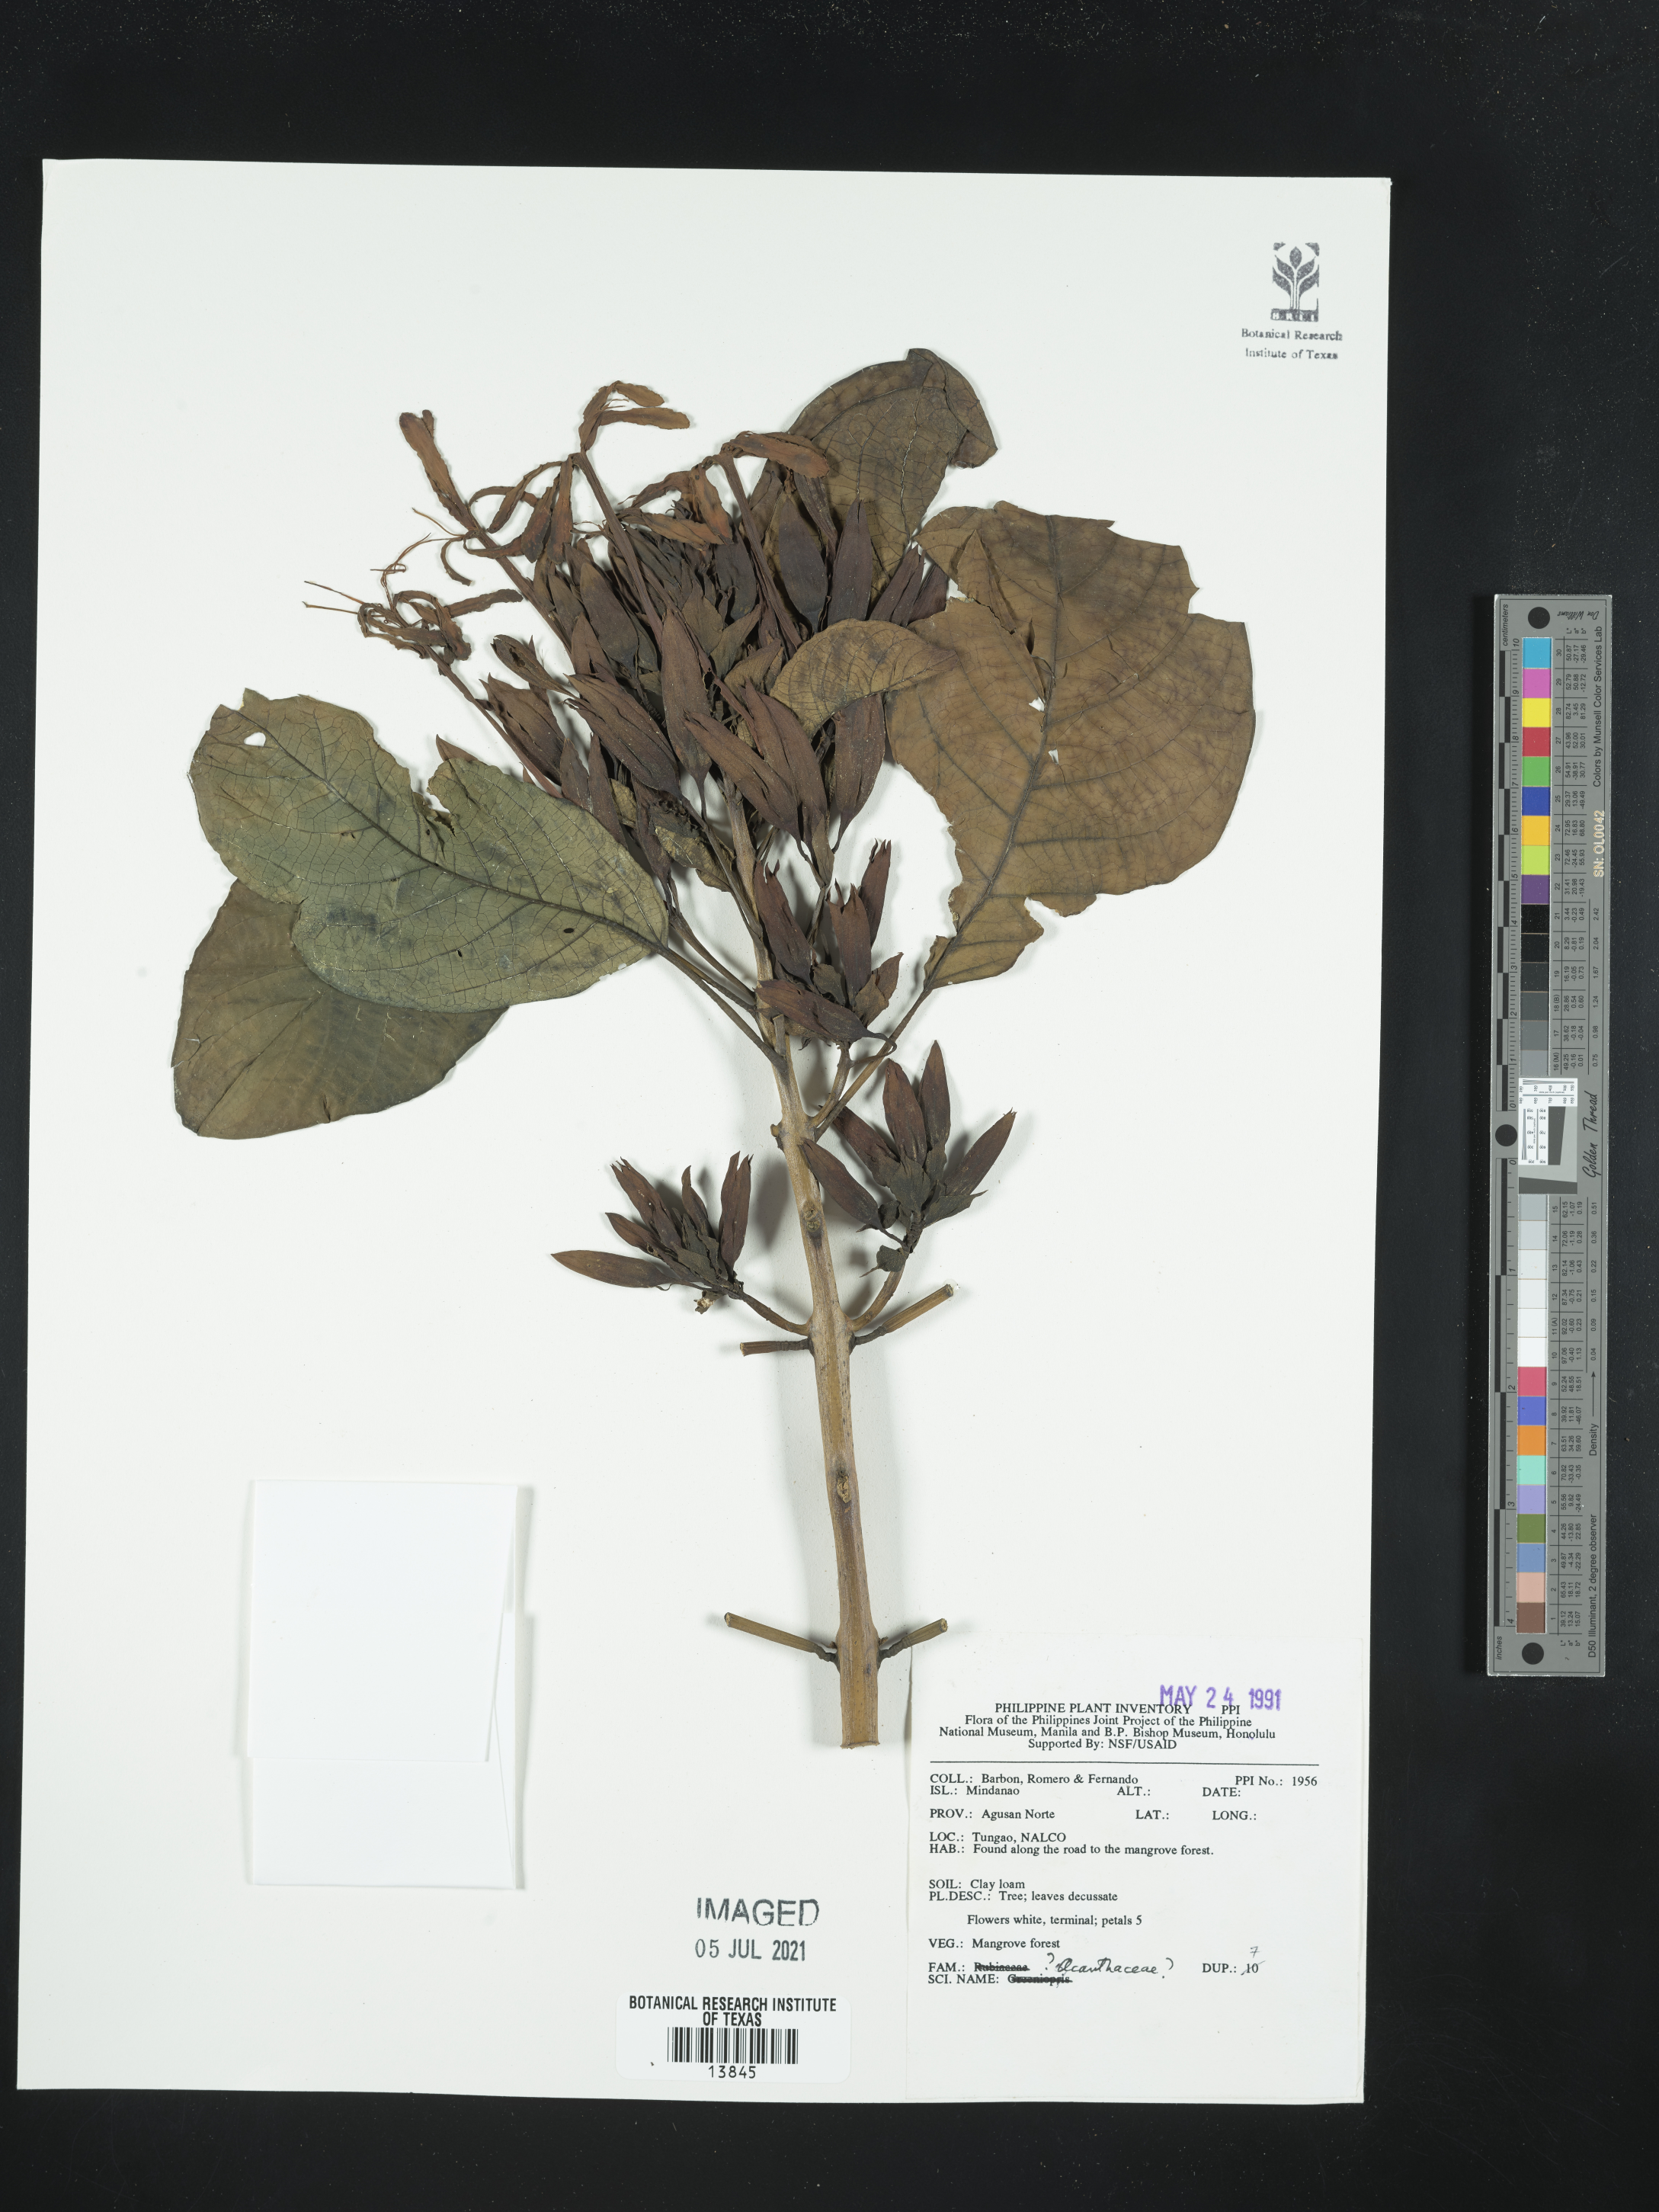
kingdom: Plantae
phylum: Tracheophyta
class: Magnoliopsida
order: Lamiales
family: Acanthaceae
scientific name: Acanthaceae
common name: Acanthaceae
